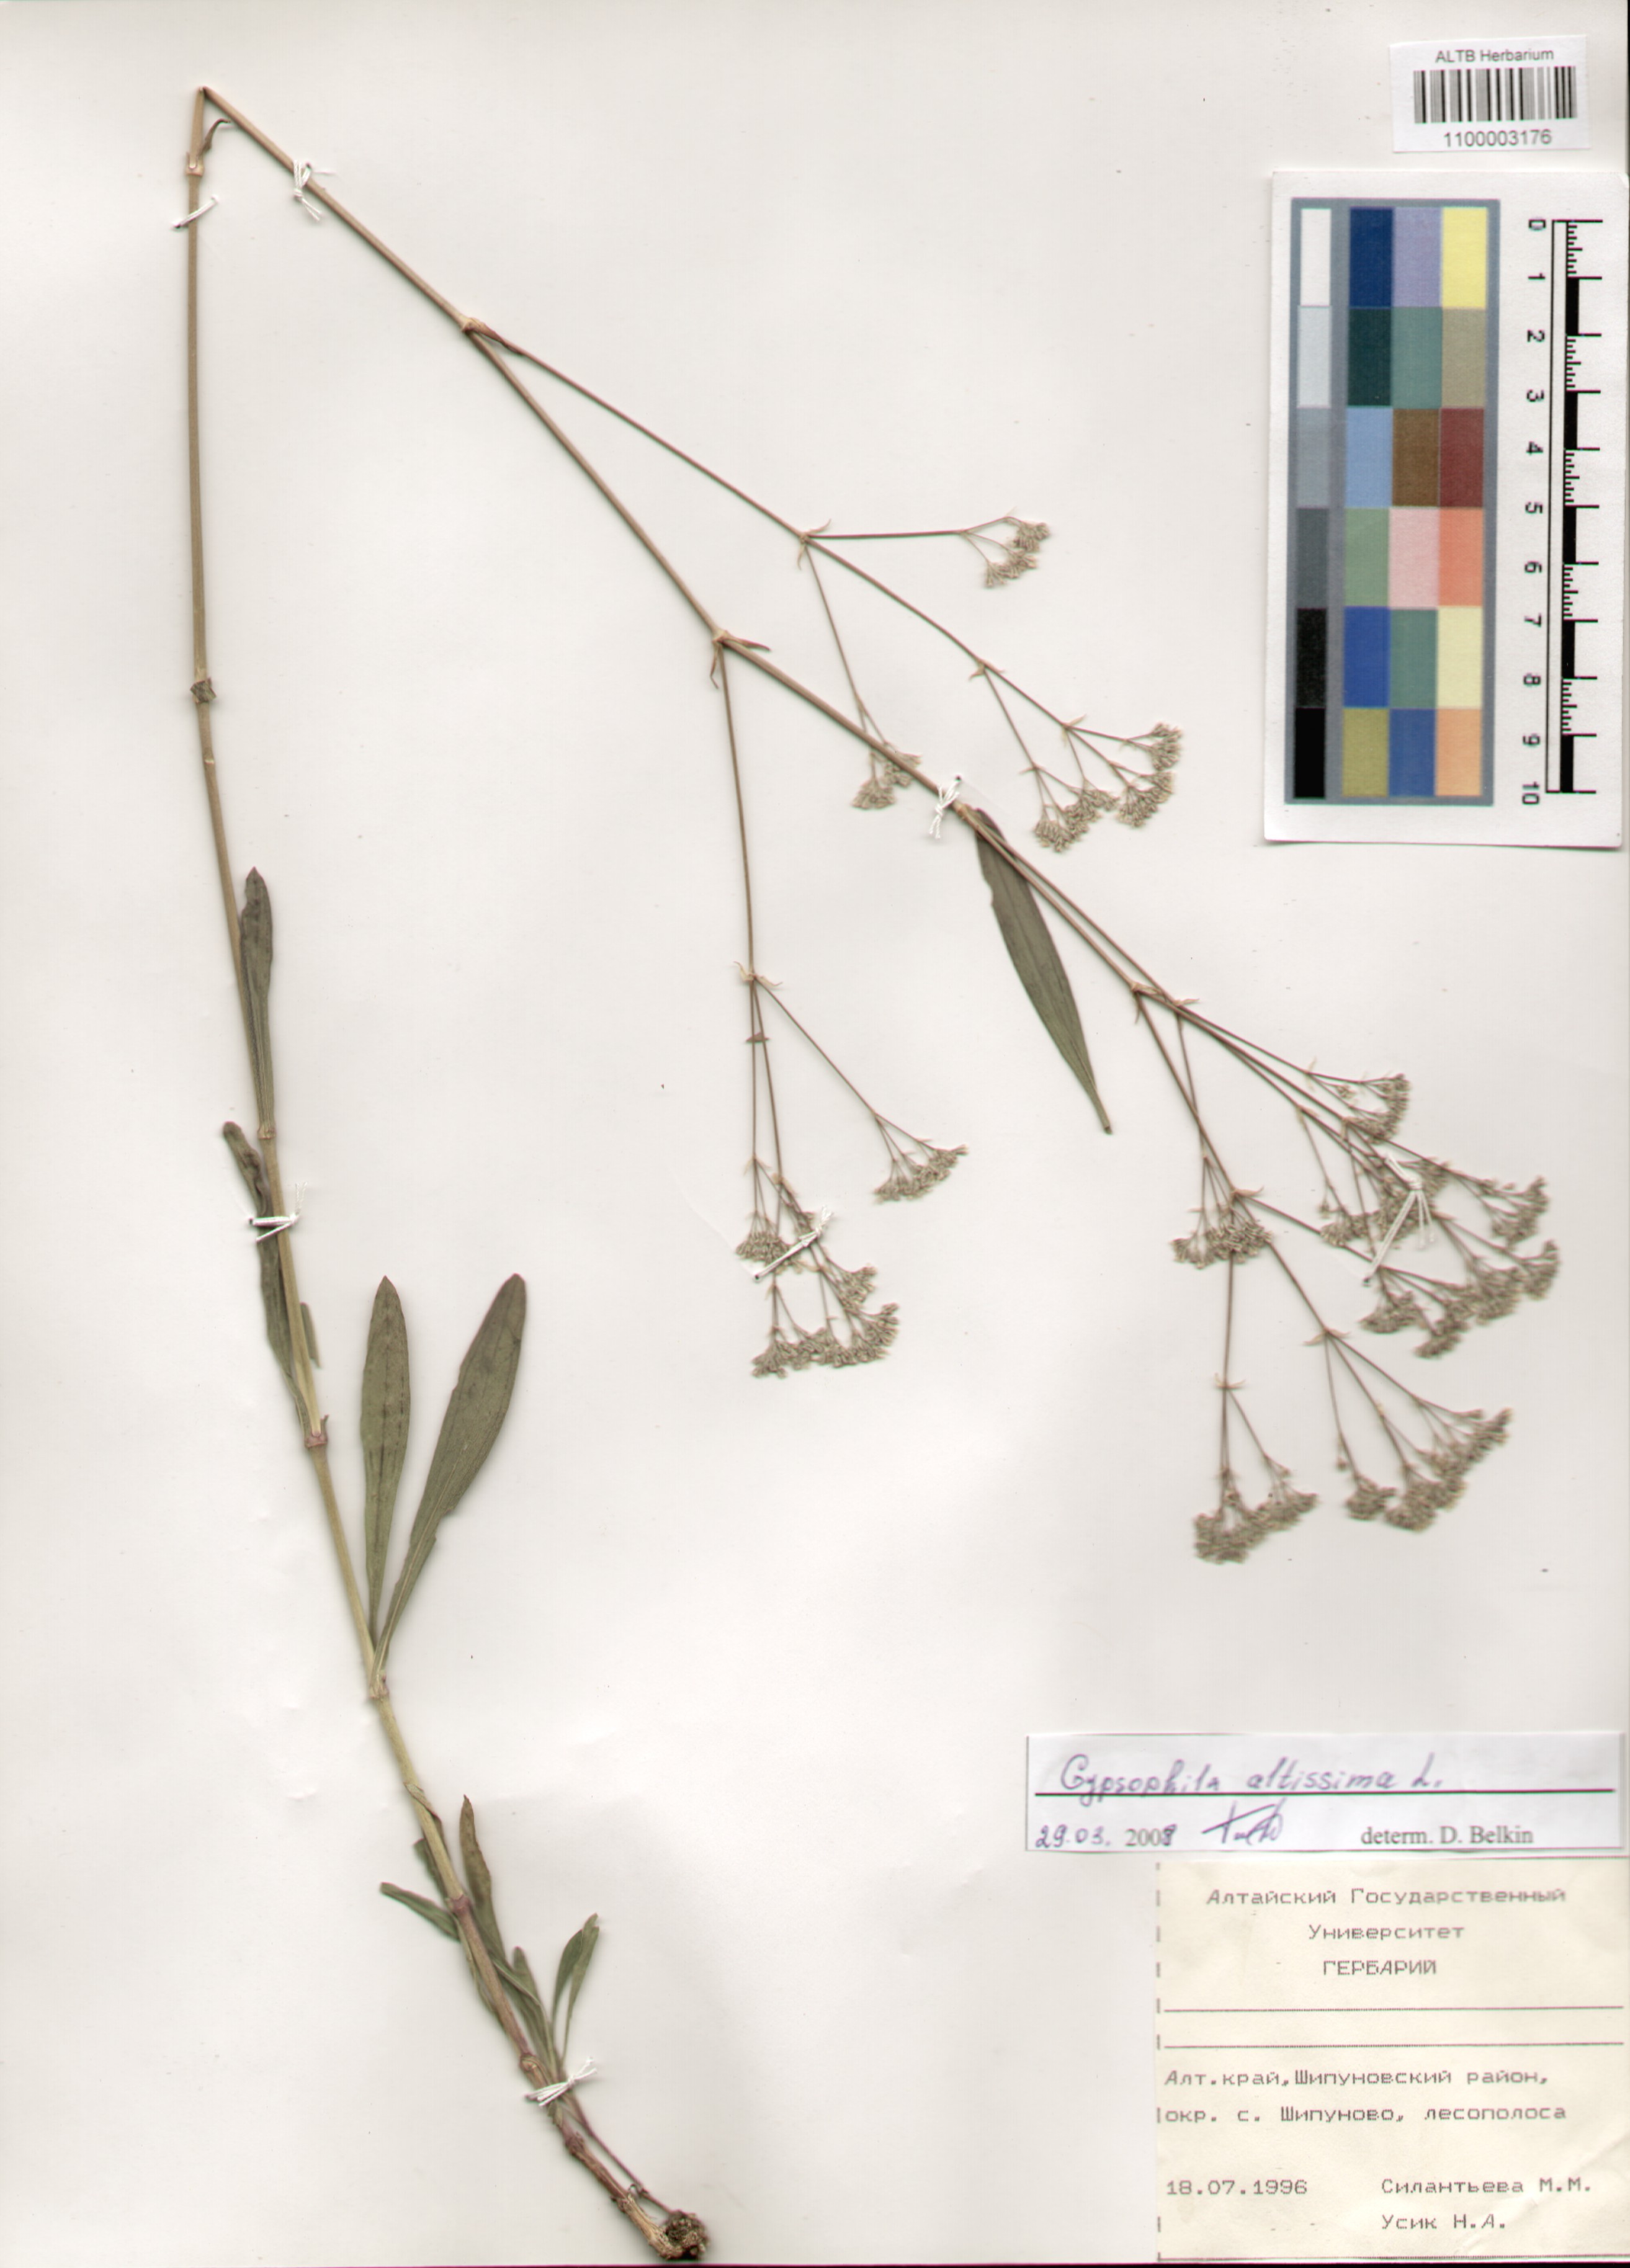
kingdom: Plantae
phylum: Tracheophyta
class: Magnoliopsida
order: Caryophyllales
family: Caryophyllaceae
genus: Gypsophila
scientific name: Gypsophila altissima
